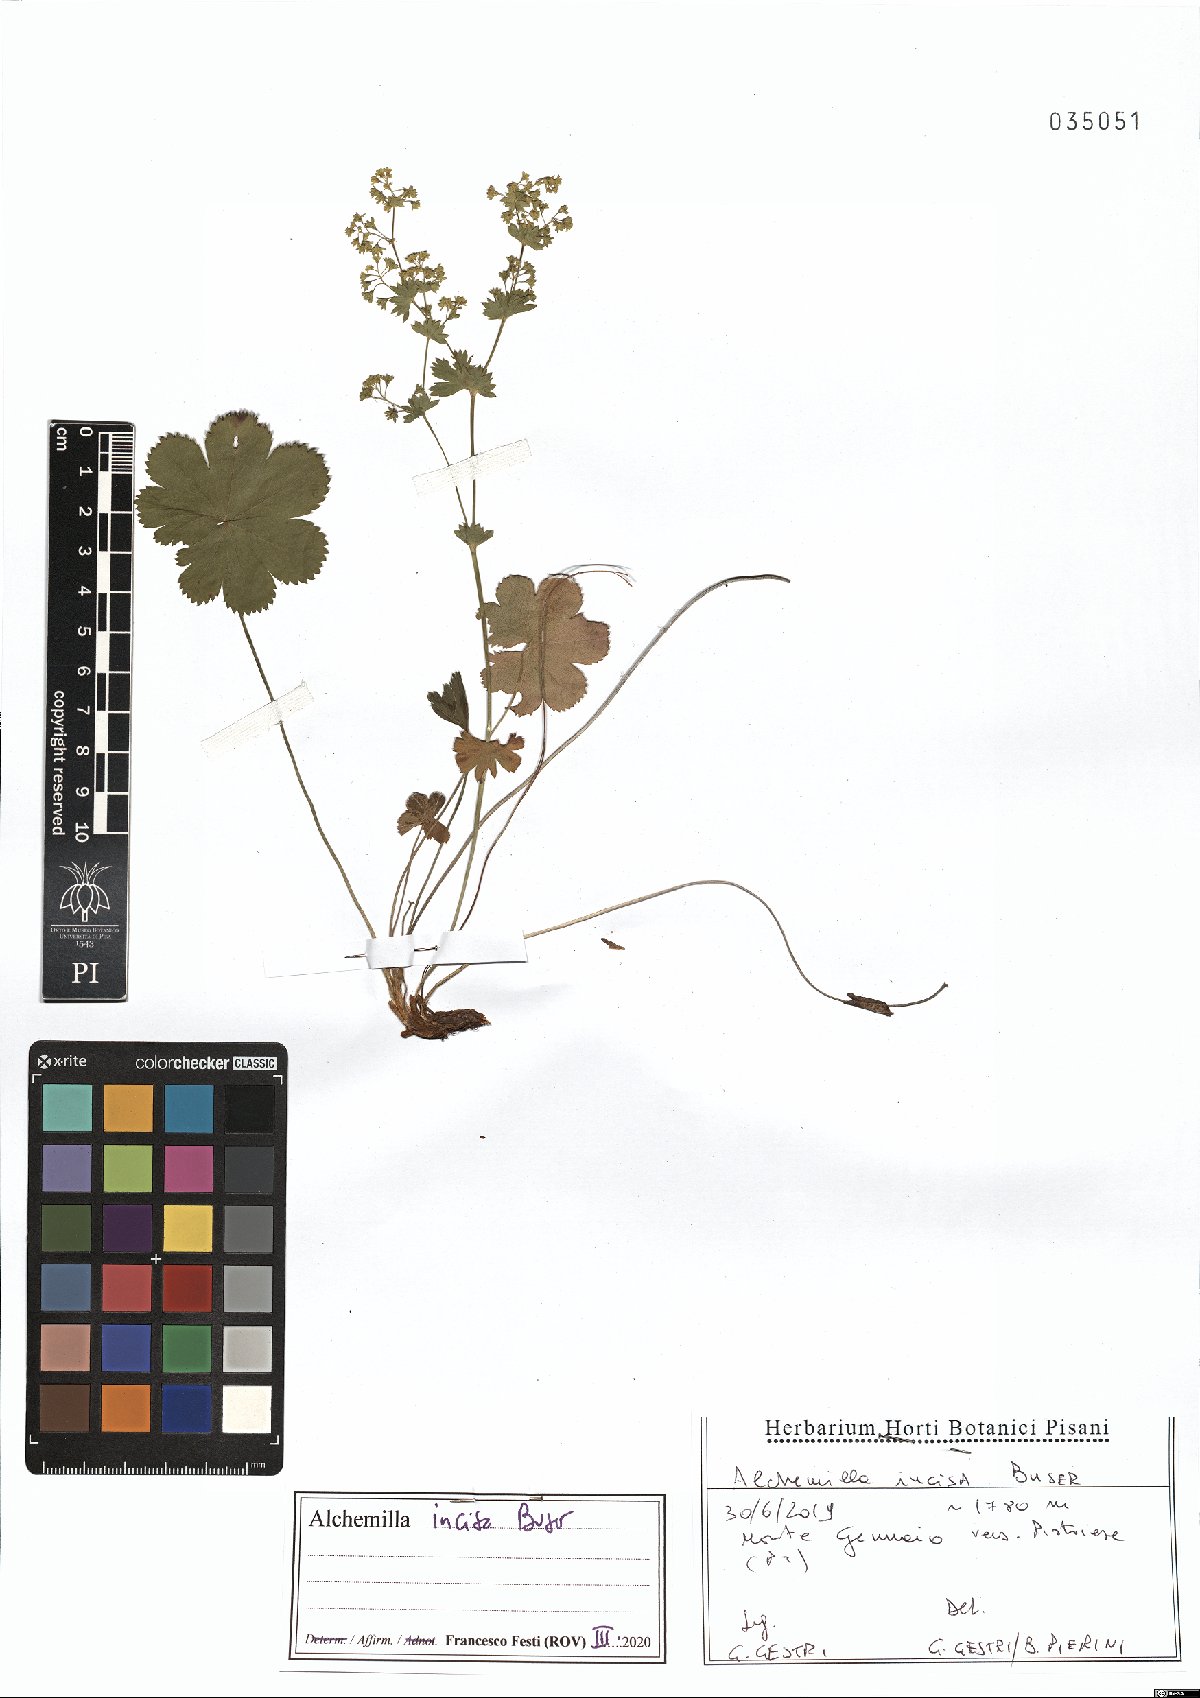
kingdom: Plantae
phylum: Tracheophyta
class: Magnoliopsida
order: Rosales
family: Rosaceae
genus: Alchemilla
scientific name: Alchemilla incisa
